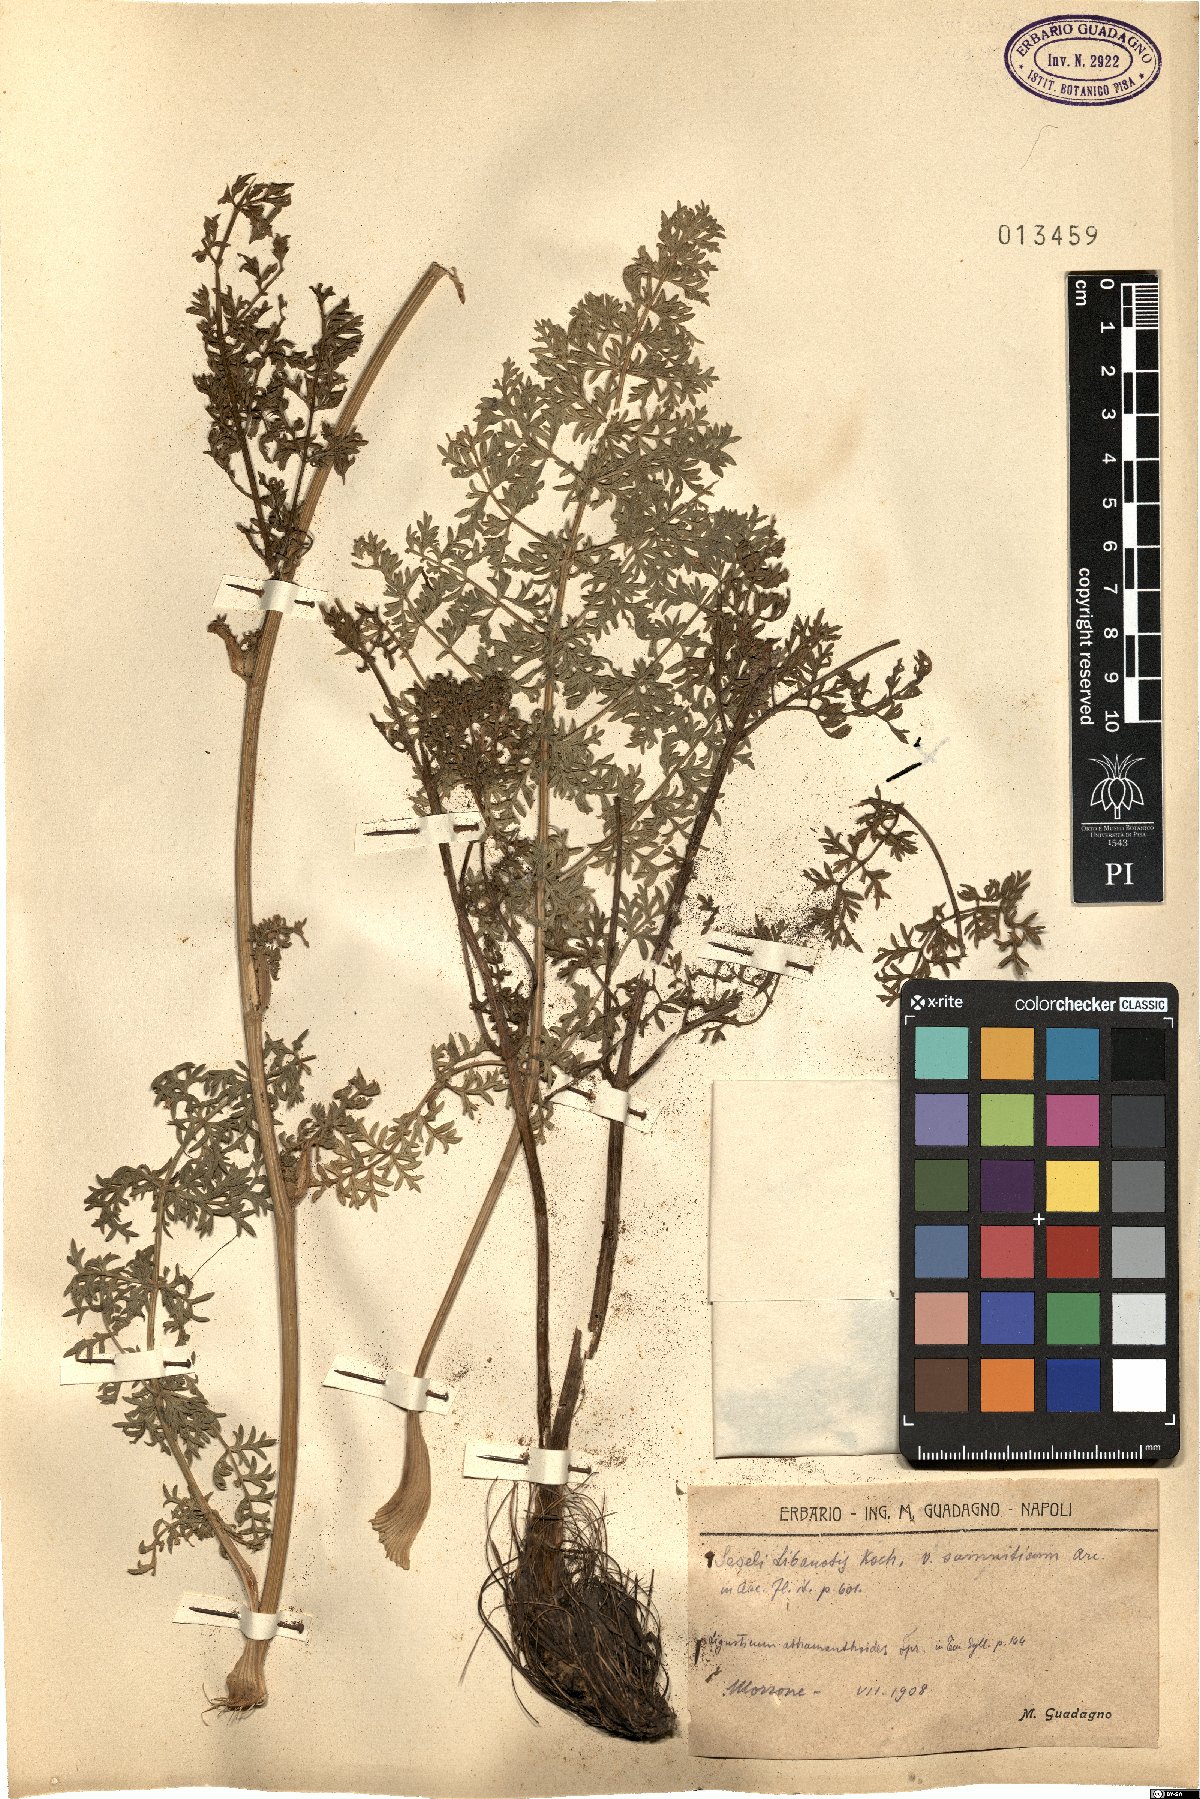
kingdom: Plantae
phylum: Tracheophyta
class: Magnoliopsida
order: Apiales
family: Apiaceae
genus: Seseli
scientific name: Seseli libanotis
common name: Mooncarrot
